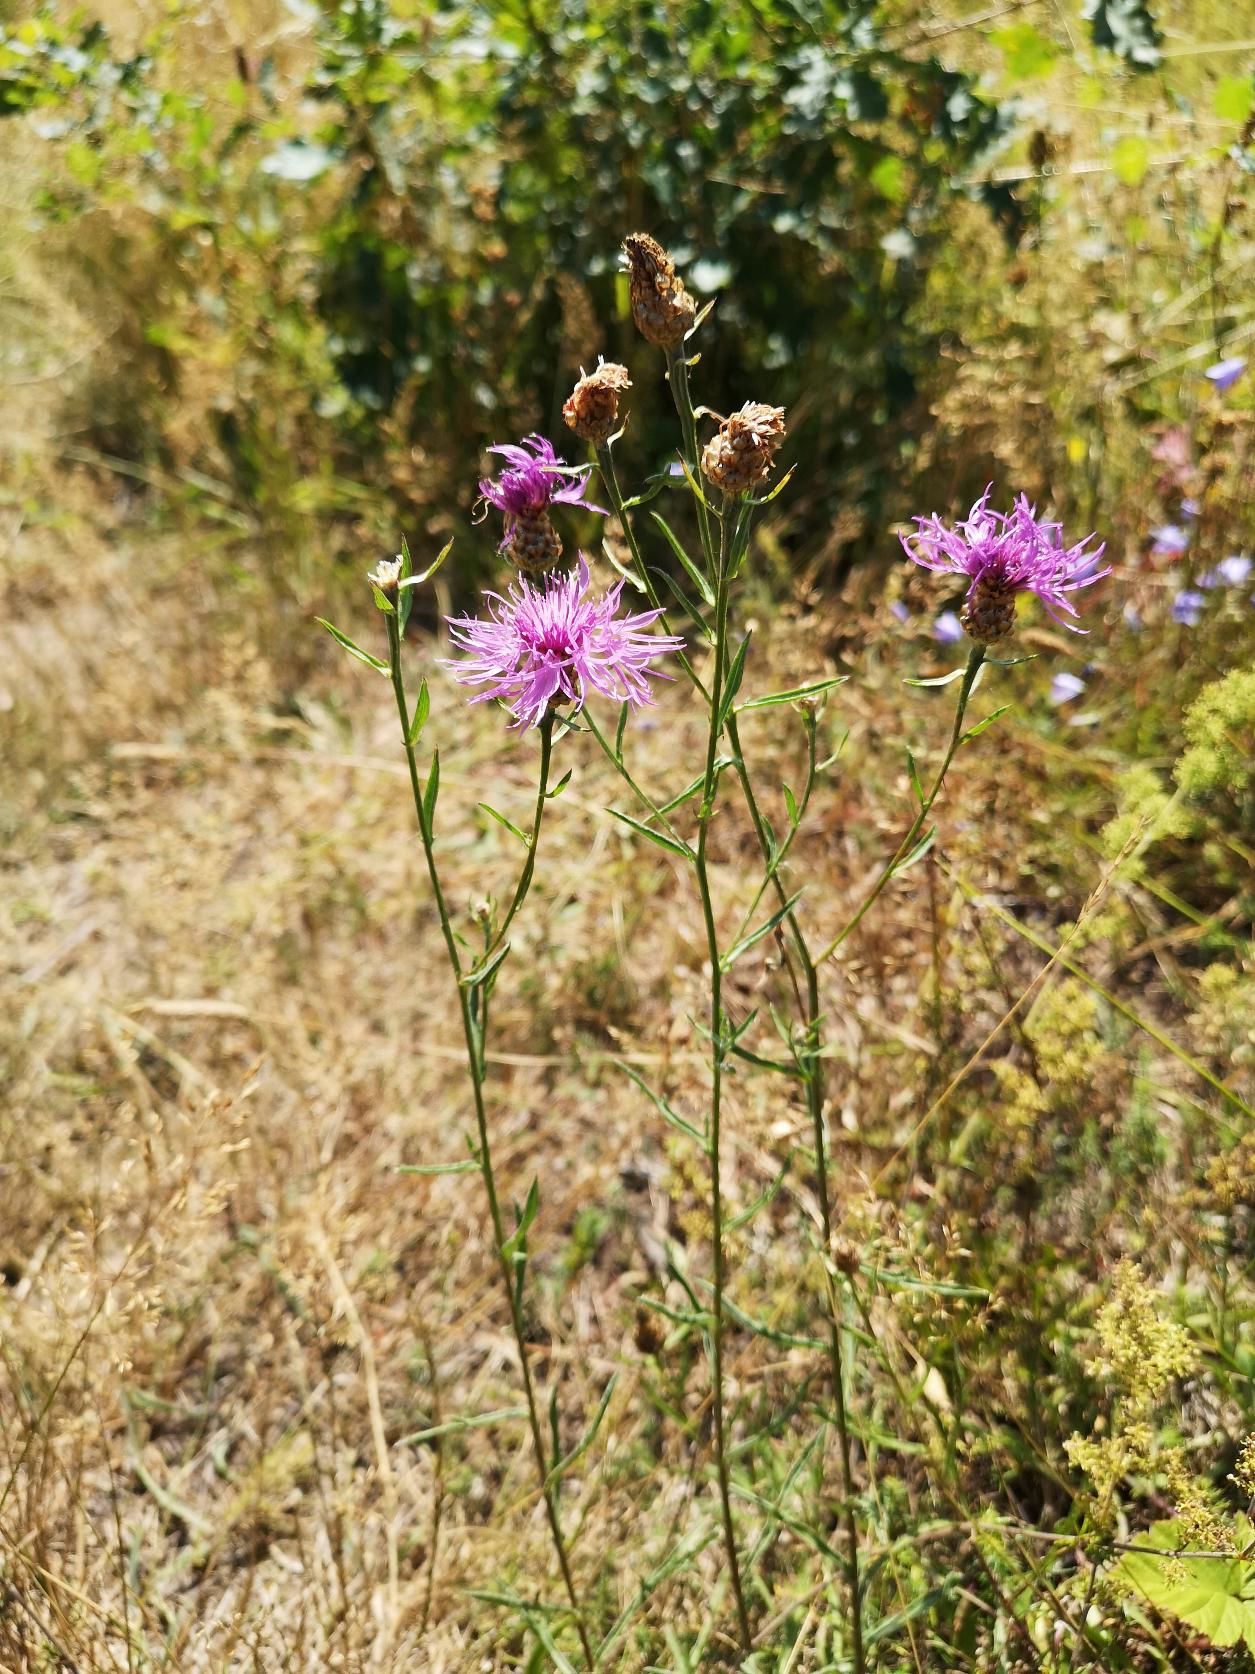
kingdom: Plantae
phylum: Tracheophyta
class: Magnoliopsida
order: Asterales
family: Asteraceae
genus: Centaurea
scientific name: Centaurea jacea
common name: Almindelig knopurt
